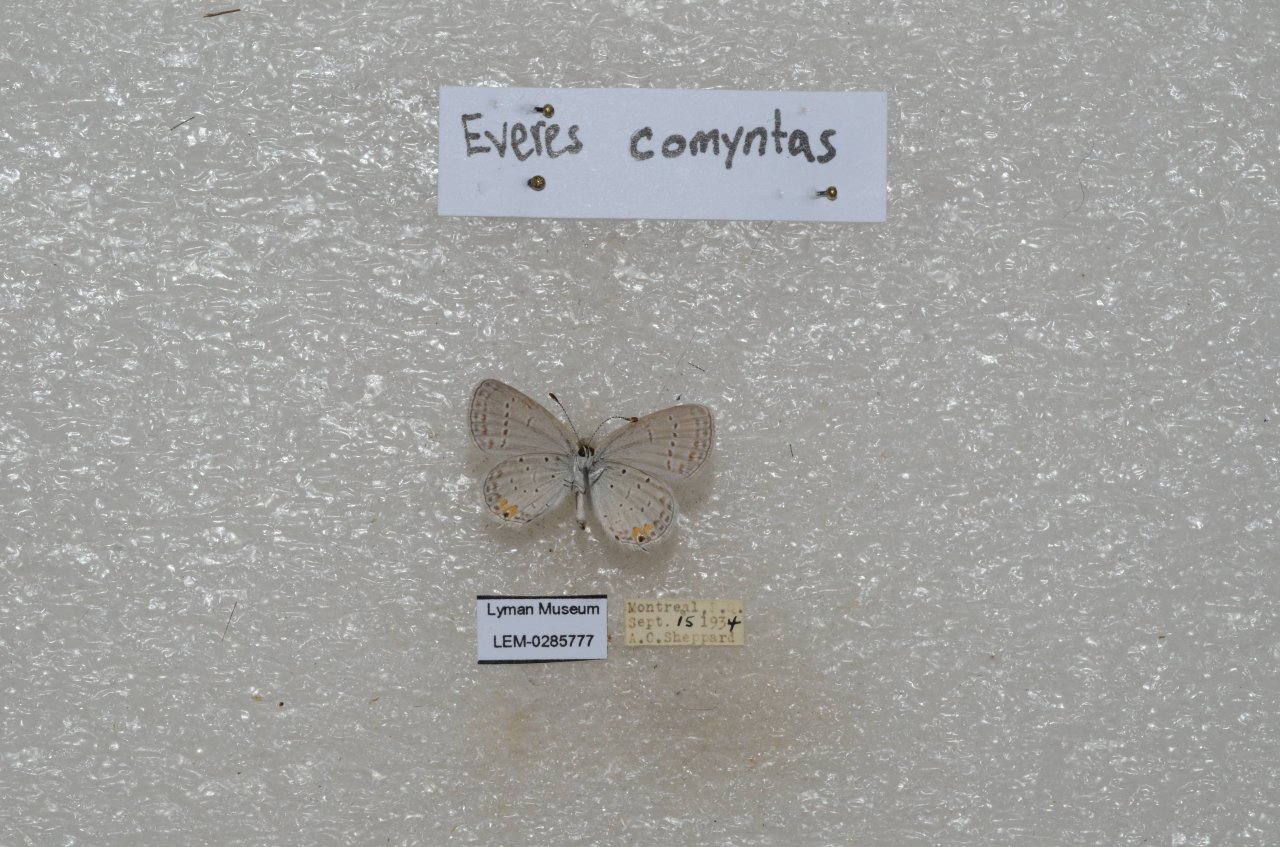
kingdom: Animalia
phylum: Arthropoda
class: Insecta
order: Lepidoptera
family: Lycaenidae
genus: Elkalyce
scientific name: Elkalyce comyntas
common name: Eastern Tailed-Blue
